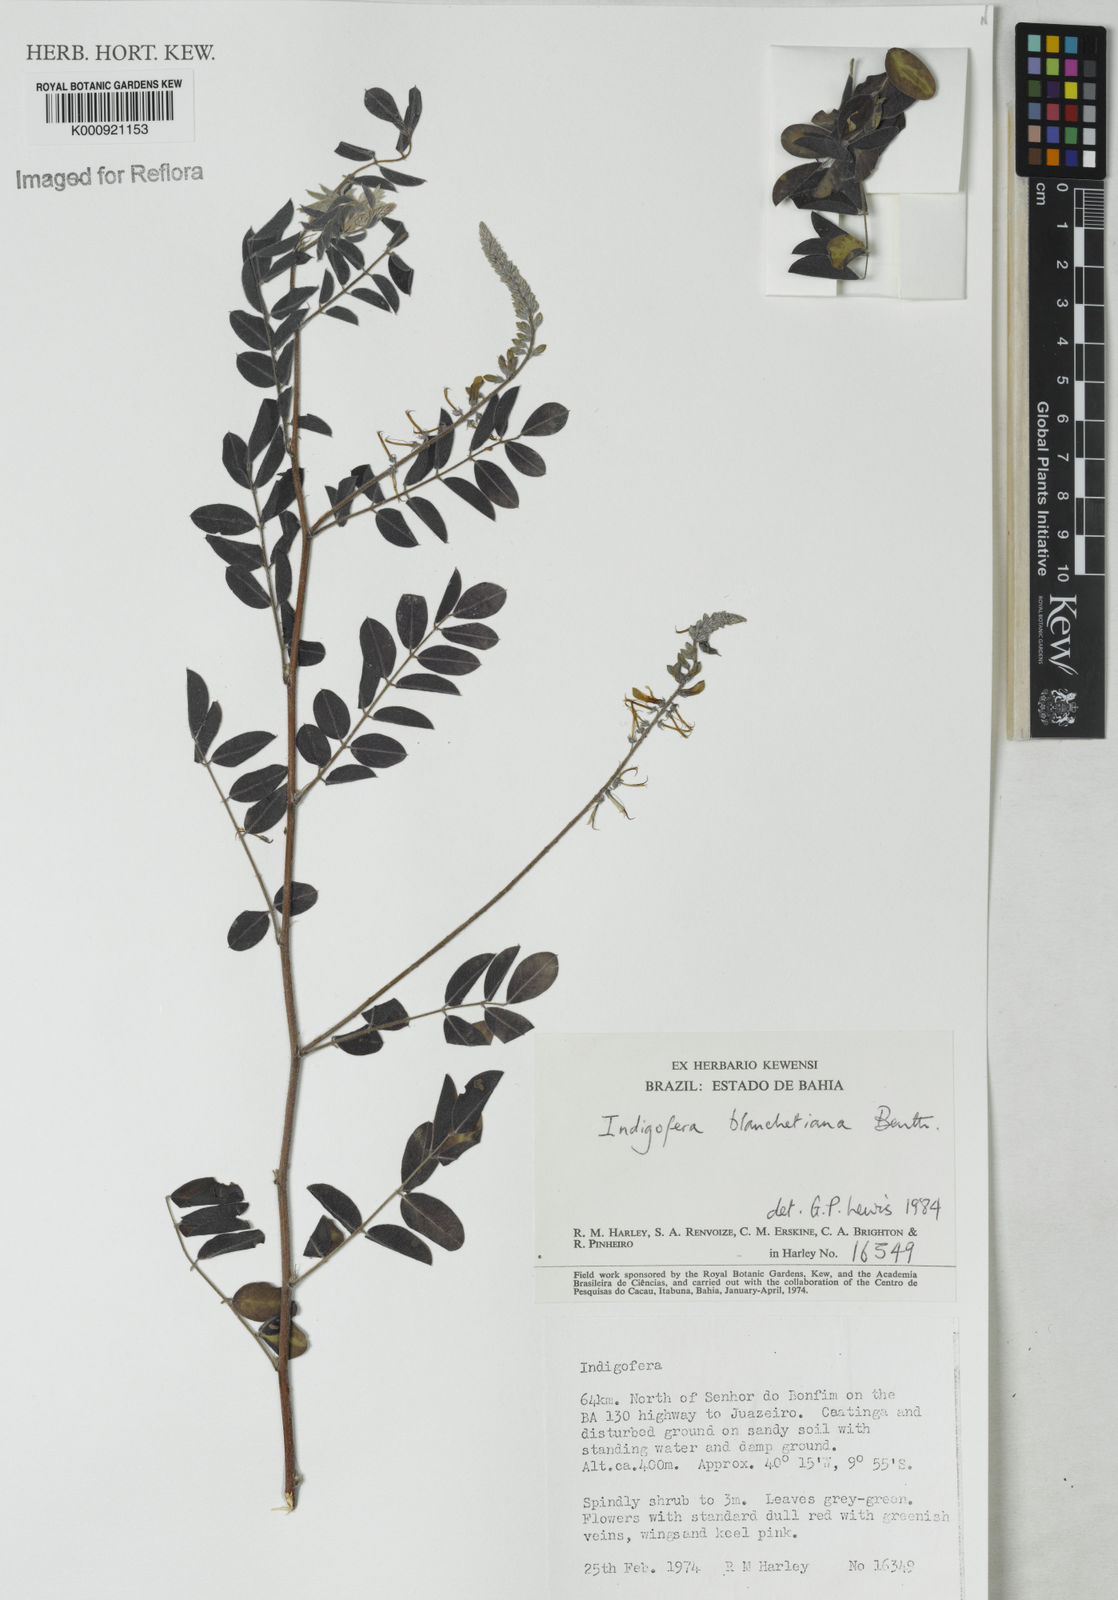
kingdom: Plantae
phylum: Tracheophyta
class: Magnoliopsida
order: Fabales
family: Fabaceae
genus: Indigofera
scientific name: Indigofera blanchetiana
